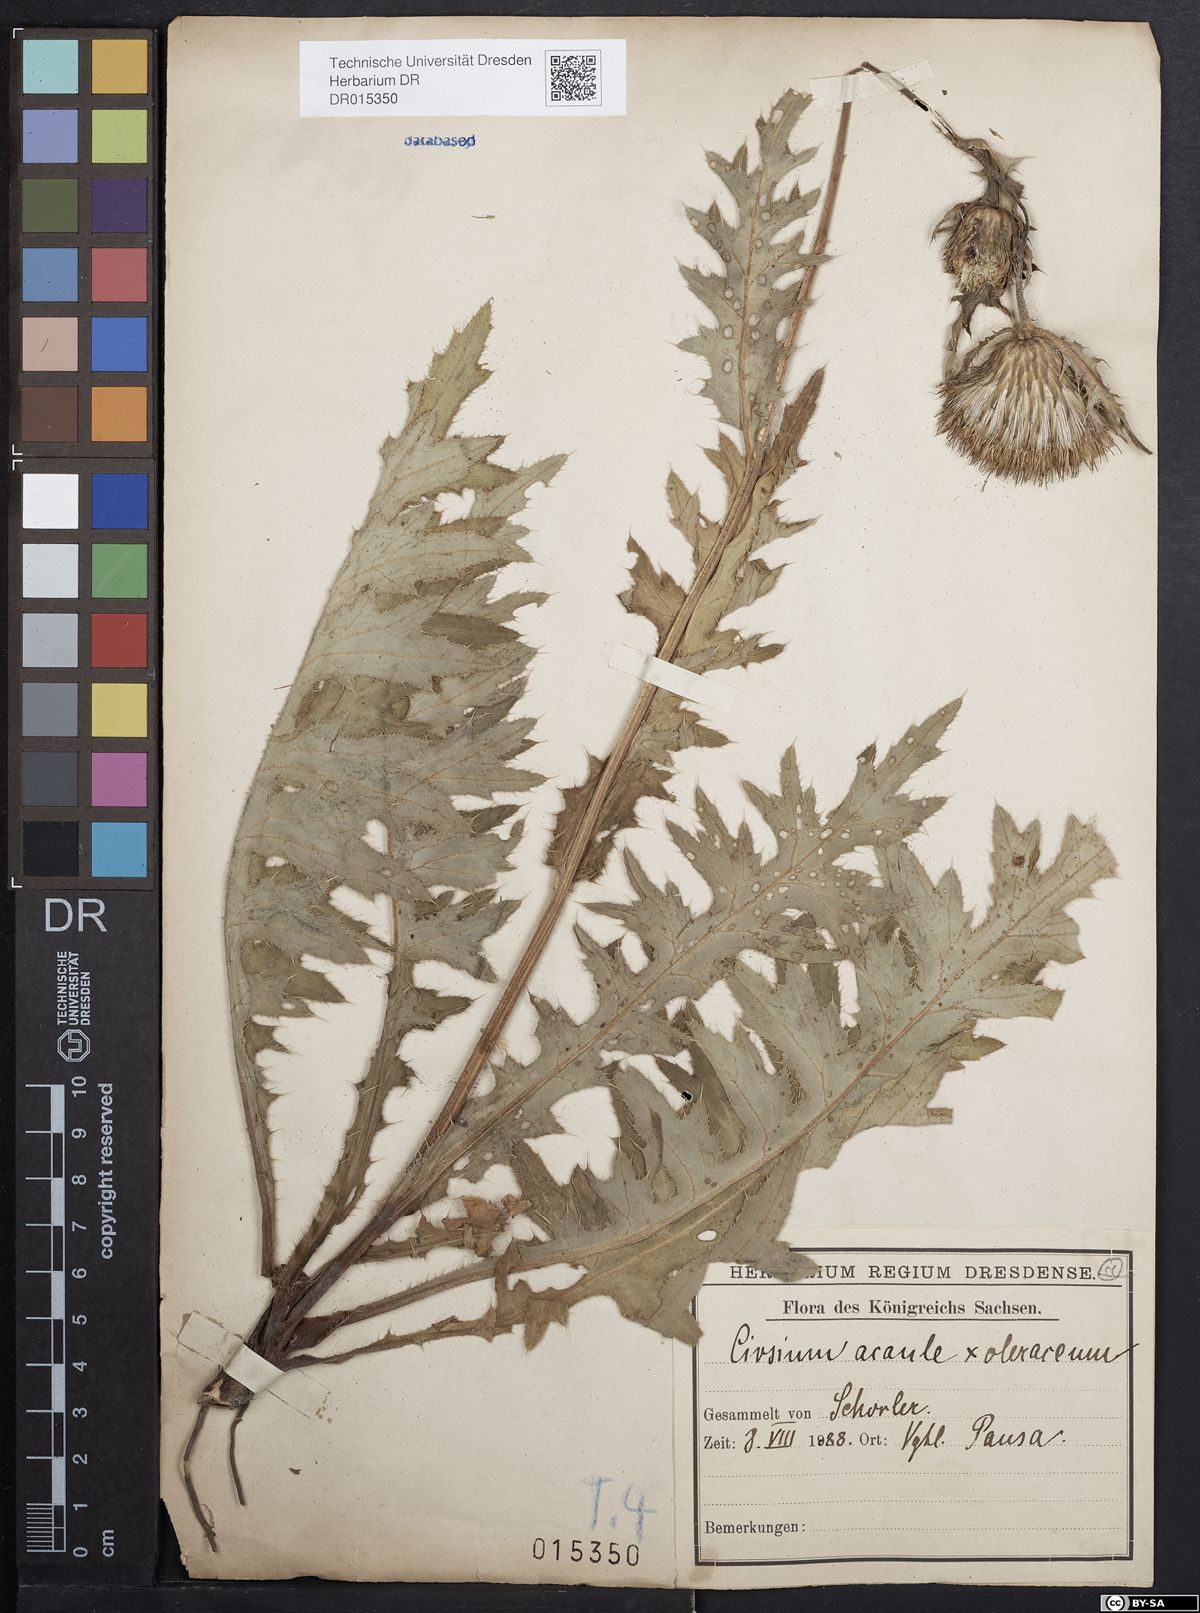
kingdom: Plantae
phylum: Tracheophyta
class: Magnoliopsida
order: Asterales
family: Asteraceae
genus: Cirsium
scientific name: Cirsium rigens
